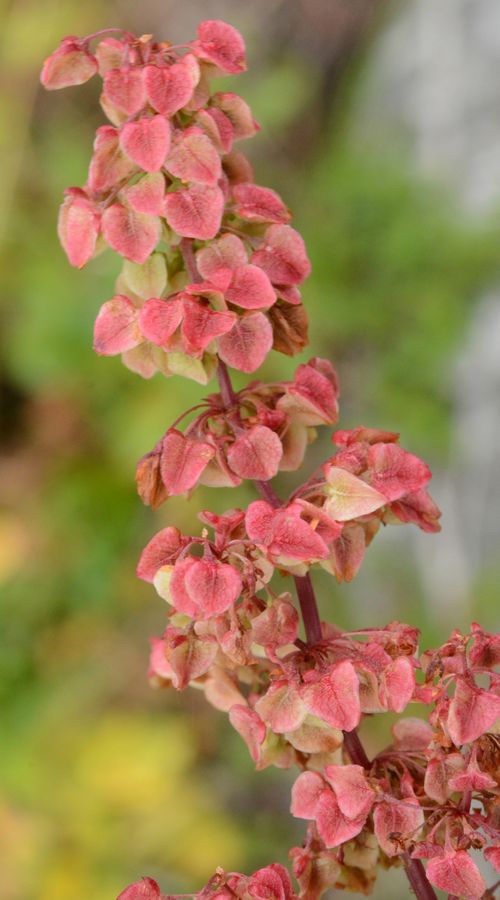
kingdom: Plantae
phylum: Tracheophyta
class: Magnoliopsida
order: Caryophyllales
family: Polygonaceae
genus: Rumex
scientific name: Rumex pseudonatronatus
